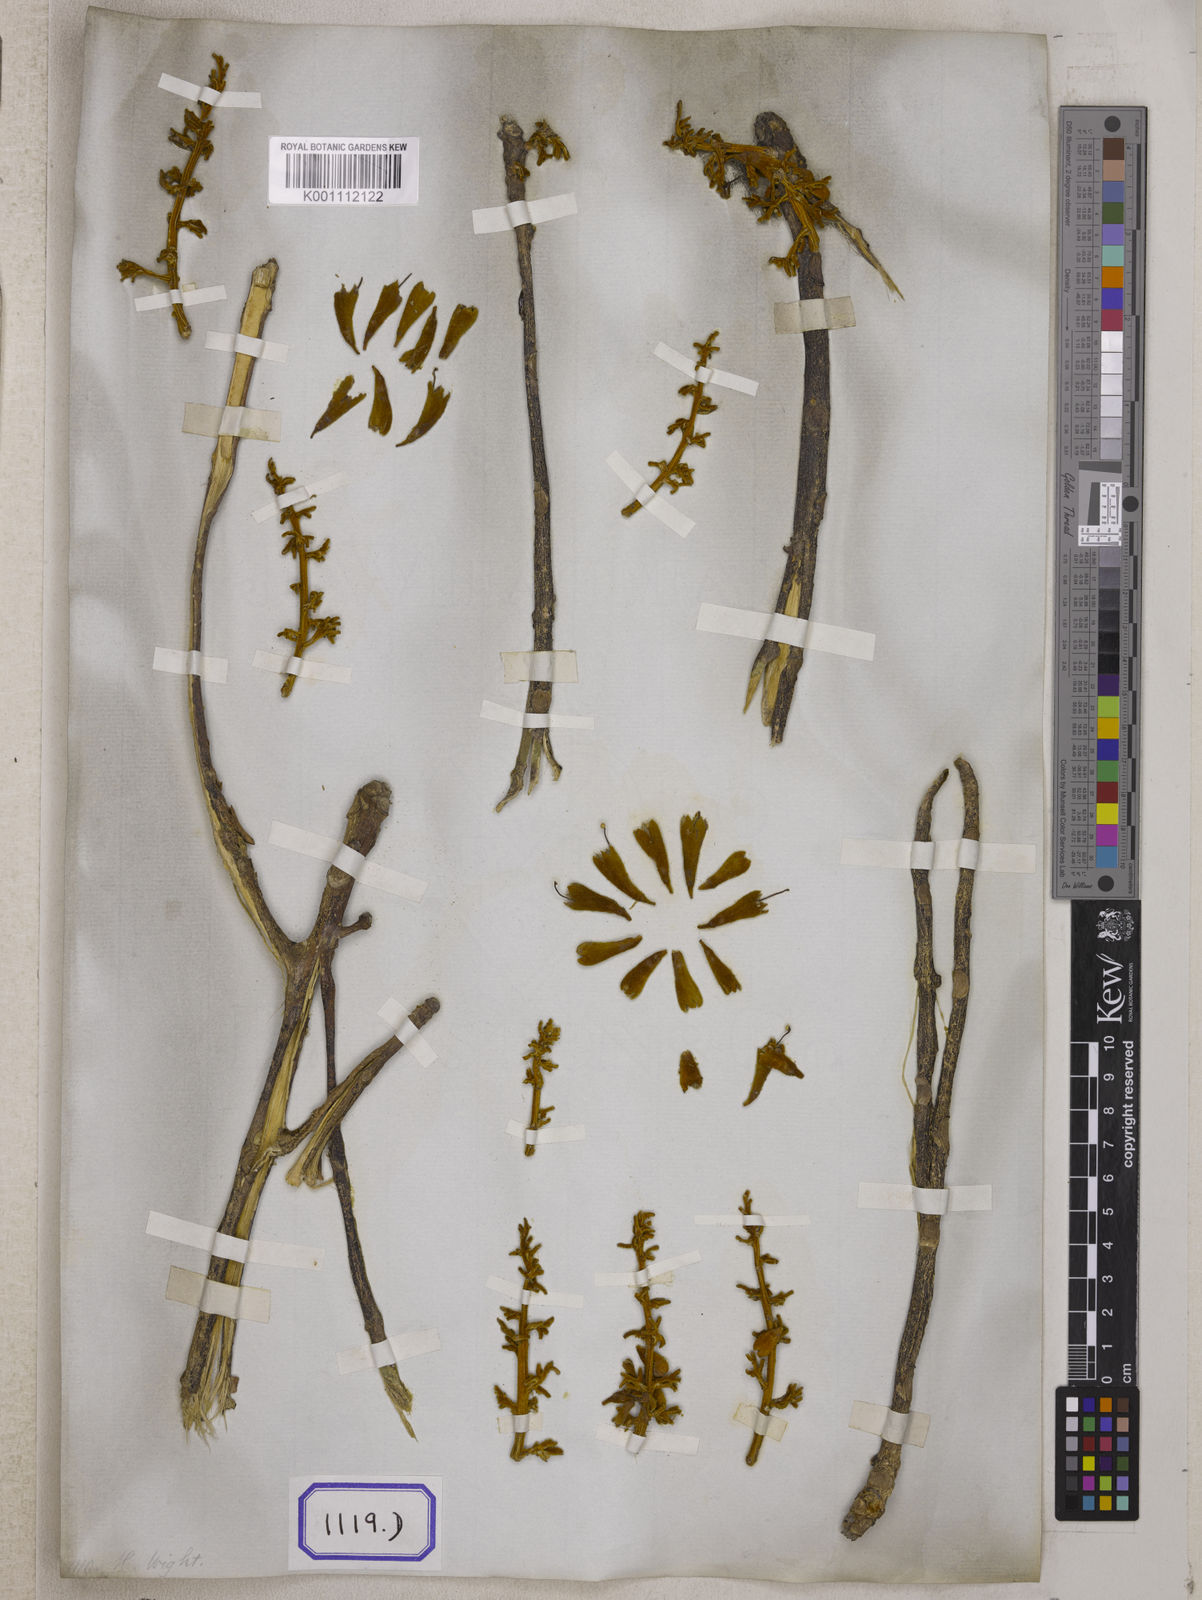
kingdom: Plantae
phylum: Tracheophyta
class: Magnoliopsida
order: Malvales
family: Malvaceae
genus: Firmiana
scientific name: Firmiana colorata
